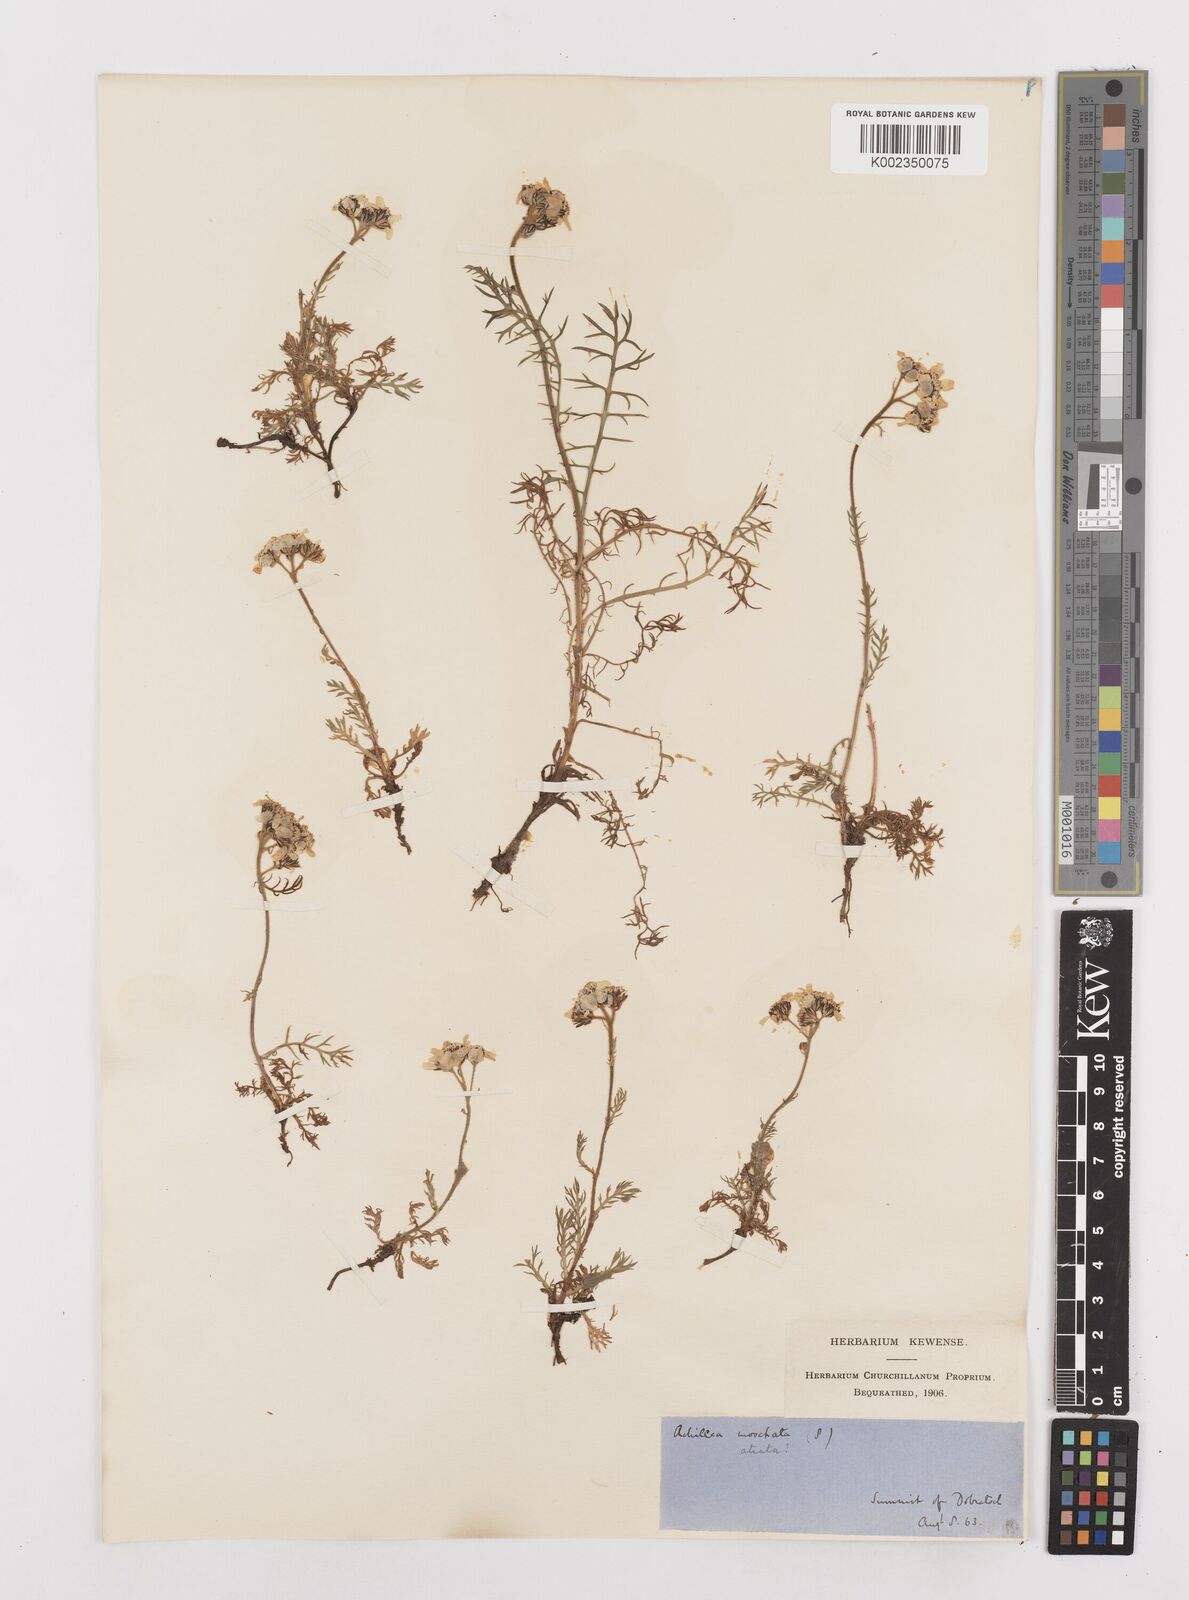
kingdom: Plantae
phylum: Tracheophyta
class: Magnoliopsida
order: Asterales
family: Asteraceae
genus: Achillea
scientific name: Achillea atrata
